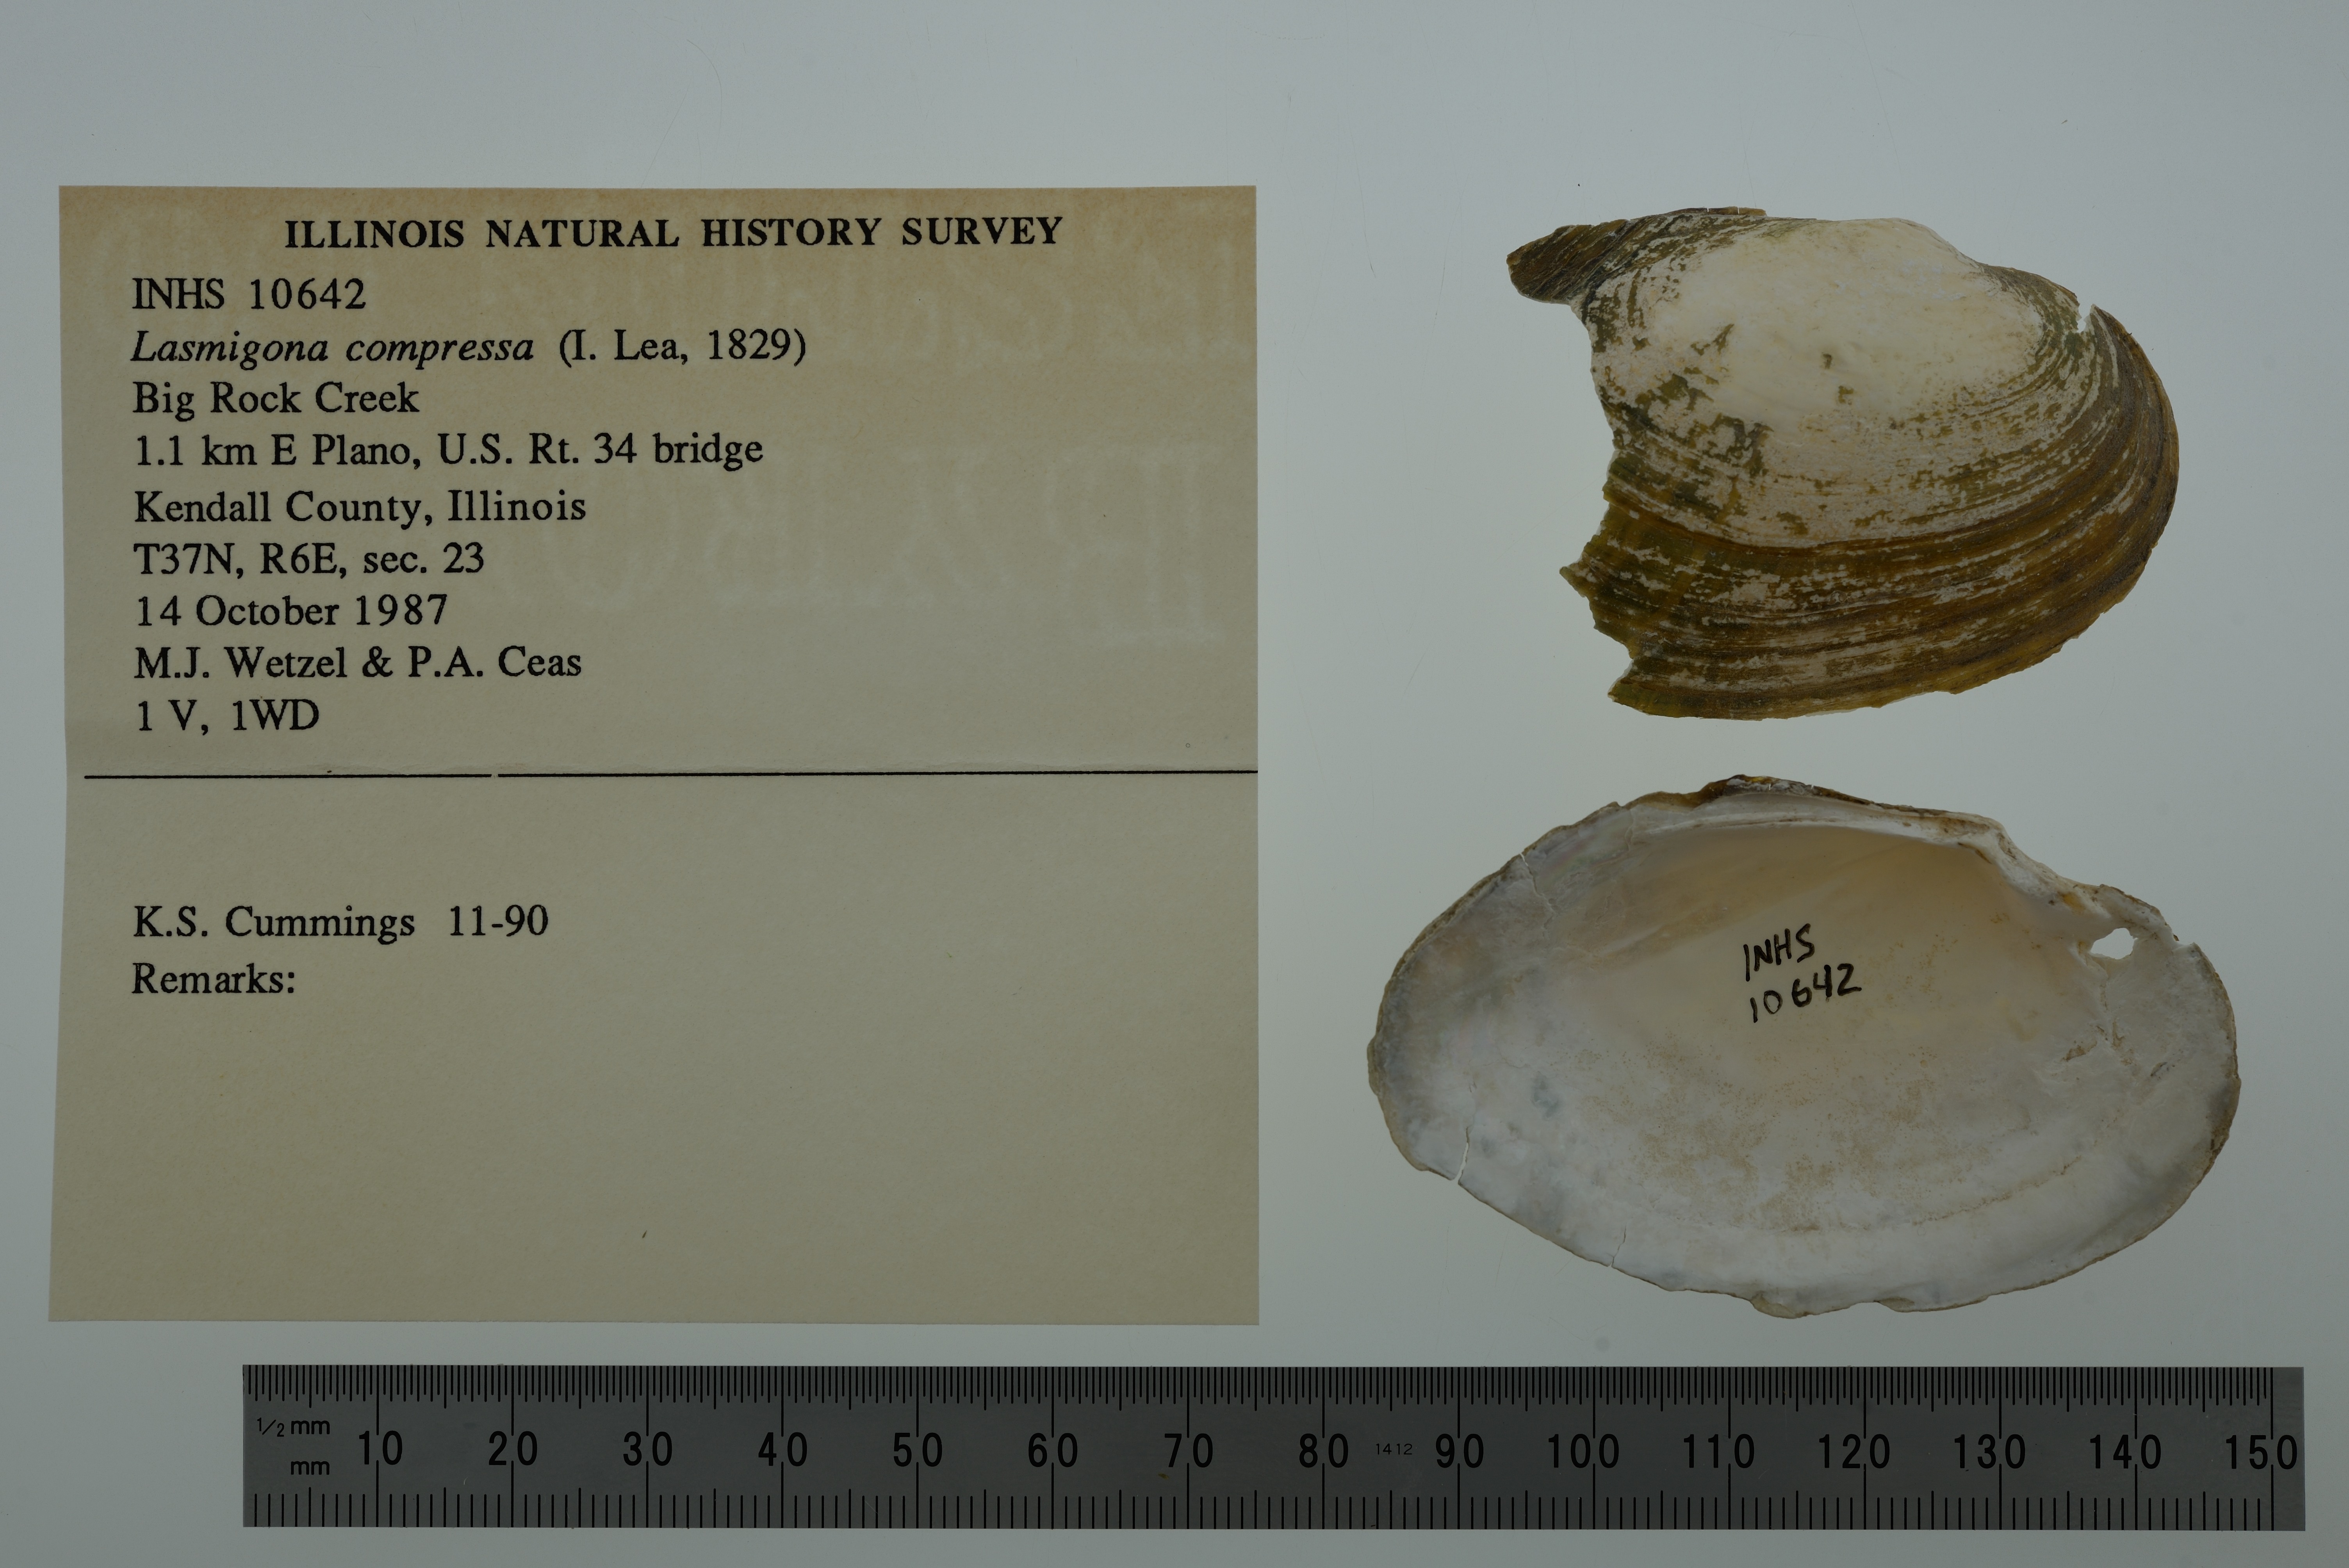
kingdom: Animalia
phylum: Mollusca
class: Bivalvia
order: Unionida
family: Unionidae
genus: Lasmigona
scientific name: Lasmigona compressa
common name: Creek heelsplitter
